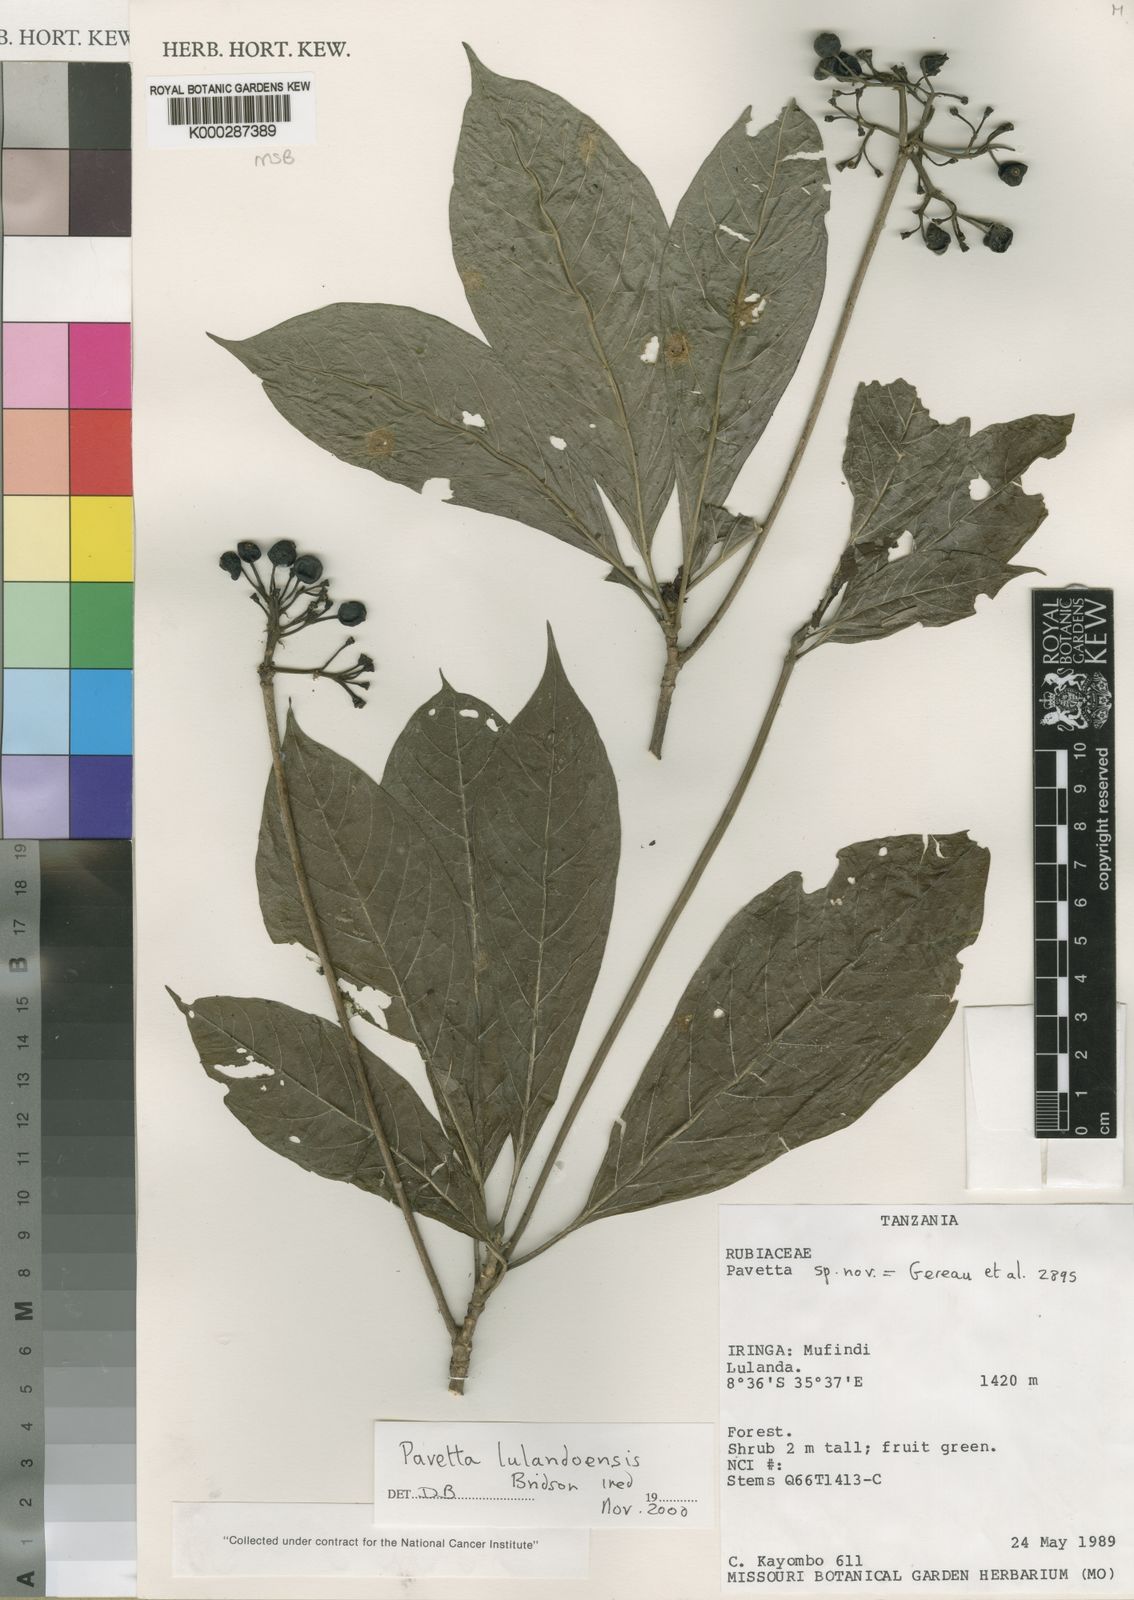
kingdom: Plantae
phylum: Tracheophyta
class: Magnoliopsida
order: Gentianales
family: Rubiaceae
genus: Pavetta
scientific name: Pavetta lulandoensis
